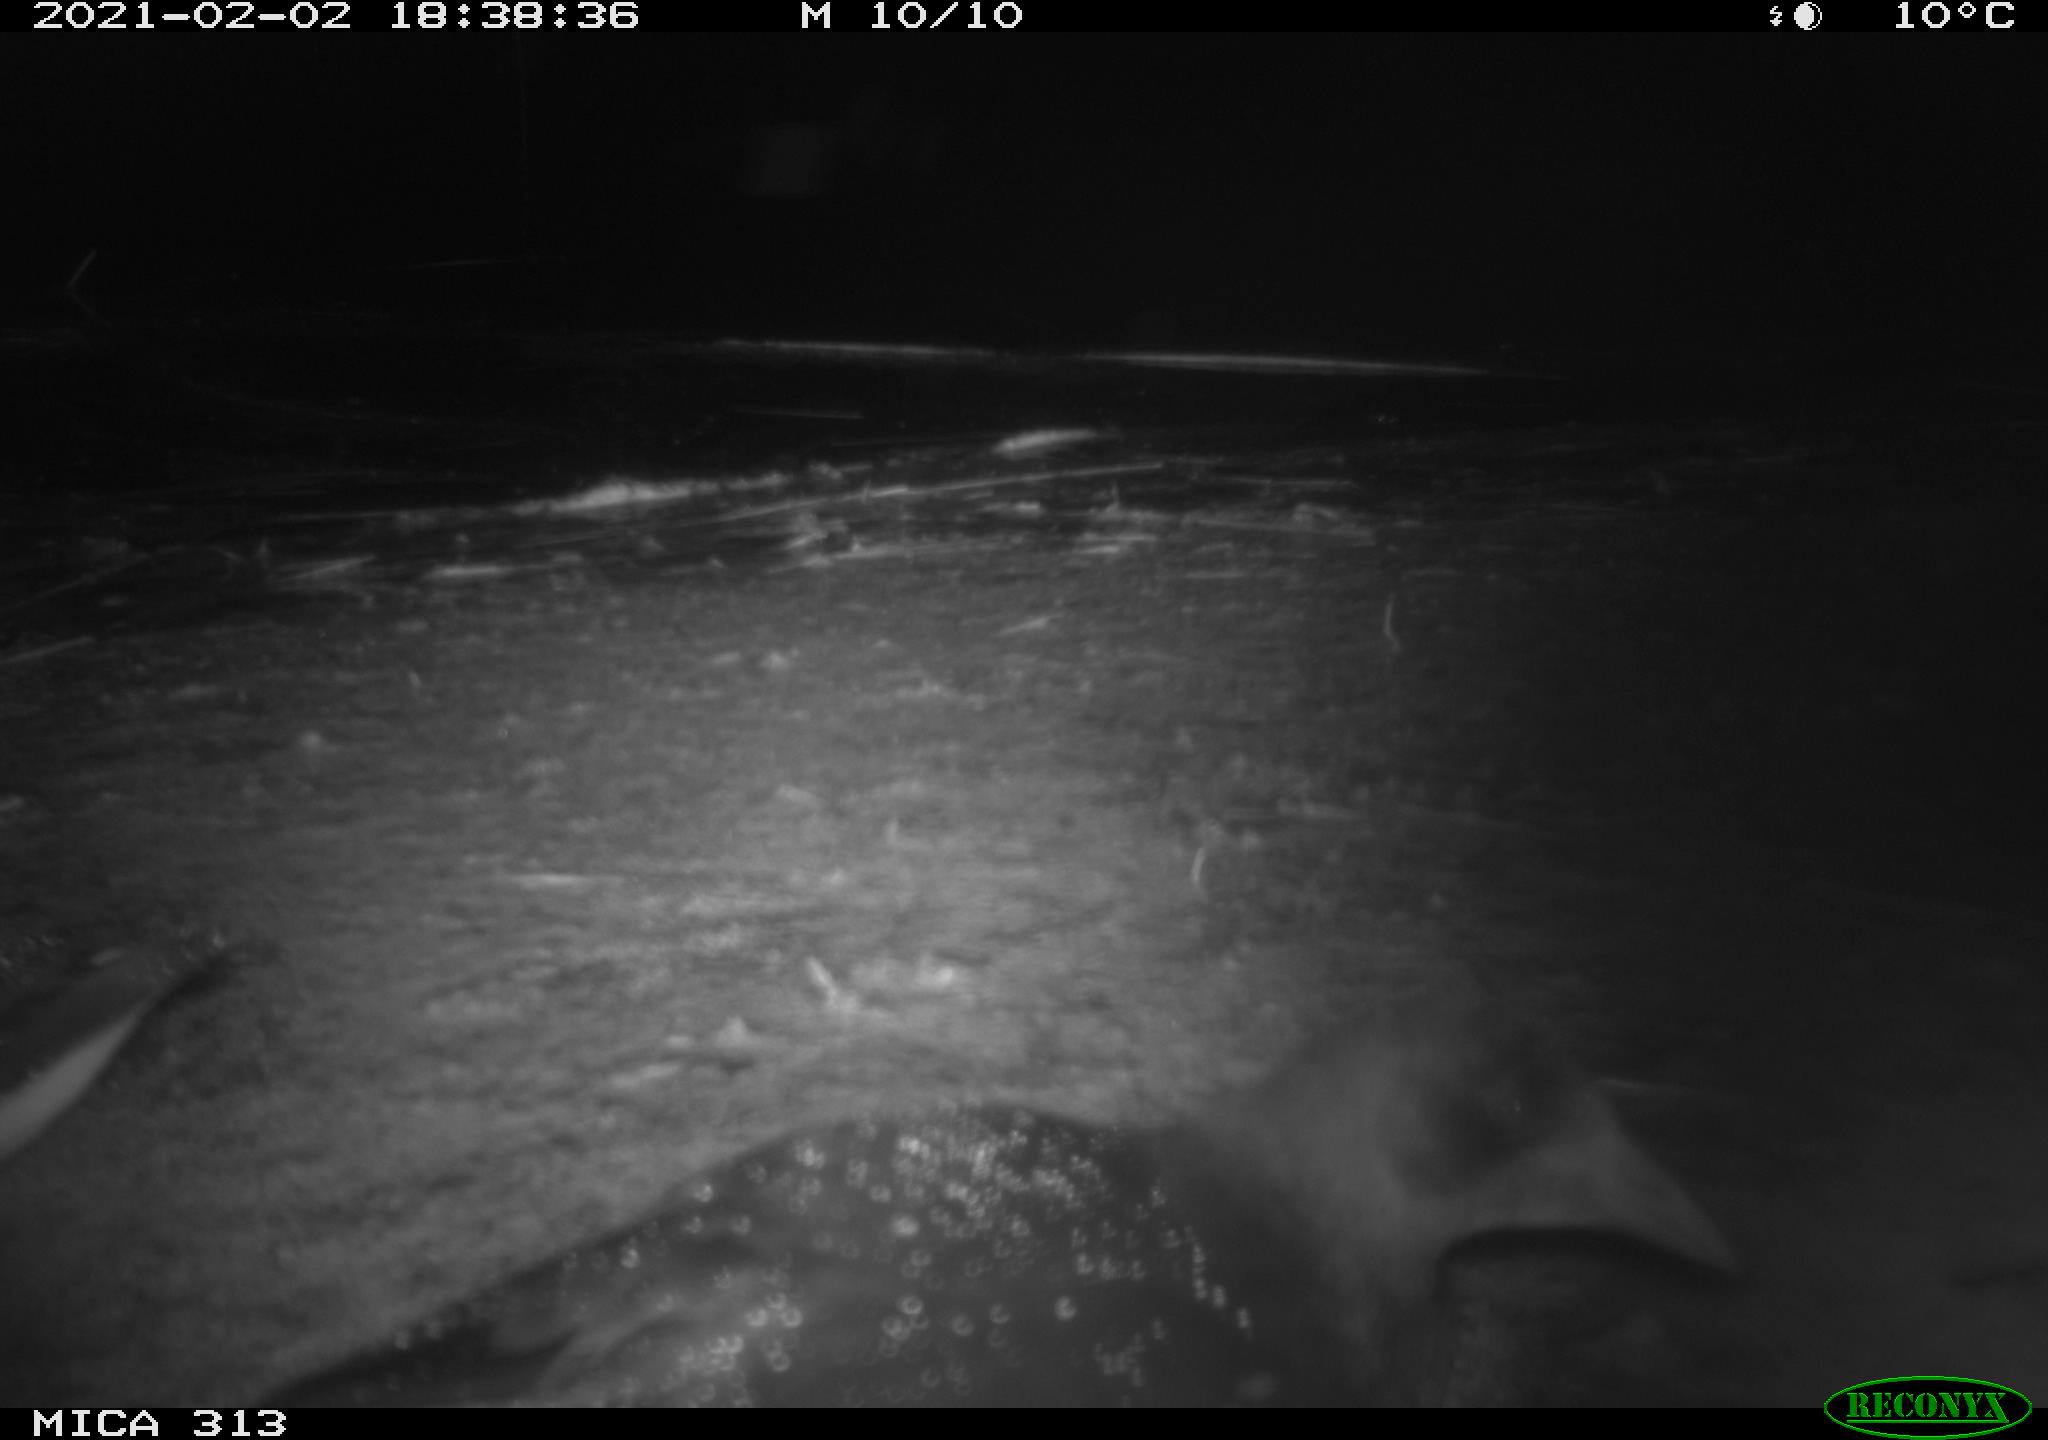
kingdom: Animalia
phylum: Chordata
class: Aves
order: Gruiformes
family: Rallidae
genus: Gallinula
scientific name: Gallinula chloropus
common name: Common moorhen
